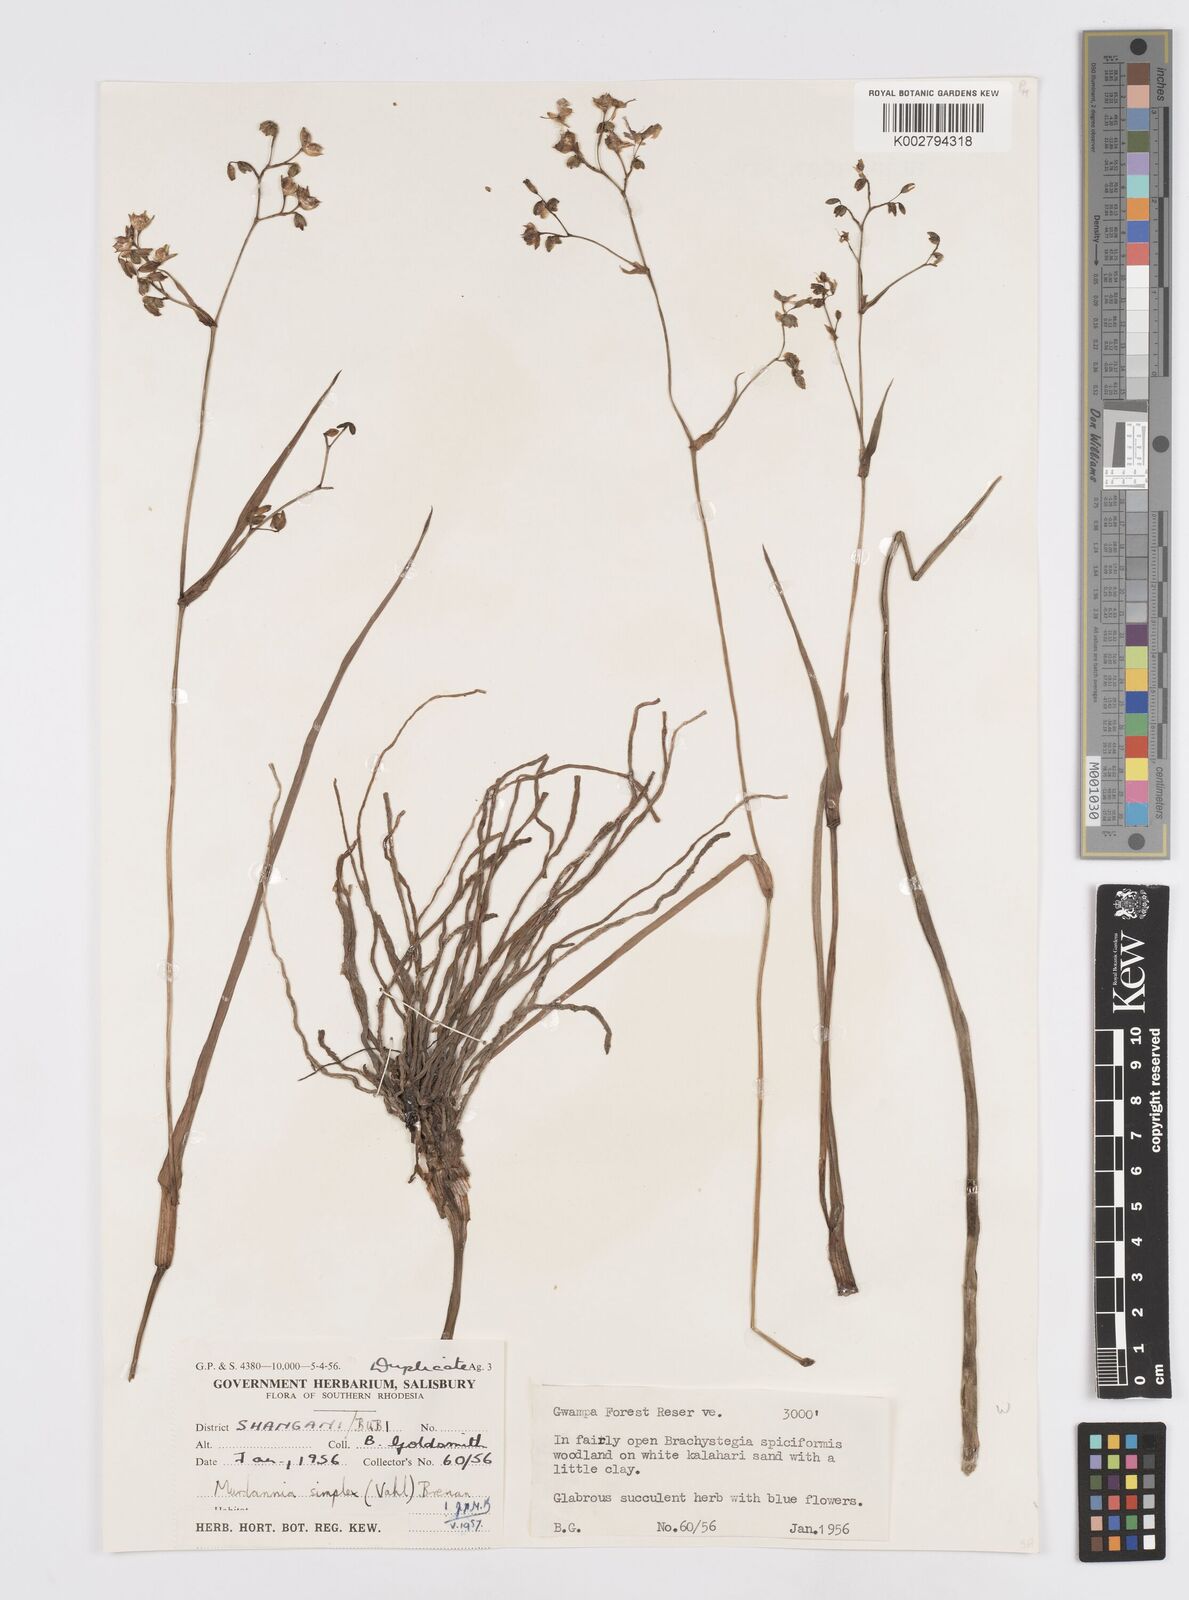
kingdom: Plantae
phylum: Tracheophyta
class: Liliopsida
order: Commelinales
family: Commelinaceae
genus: Murdannia
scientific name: Murdannia simplex
